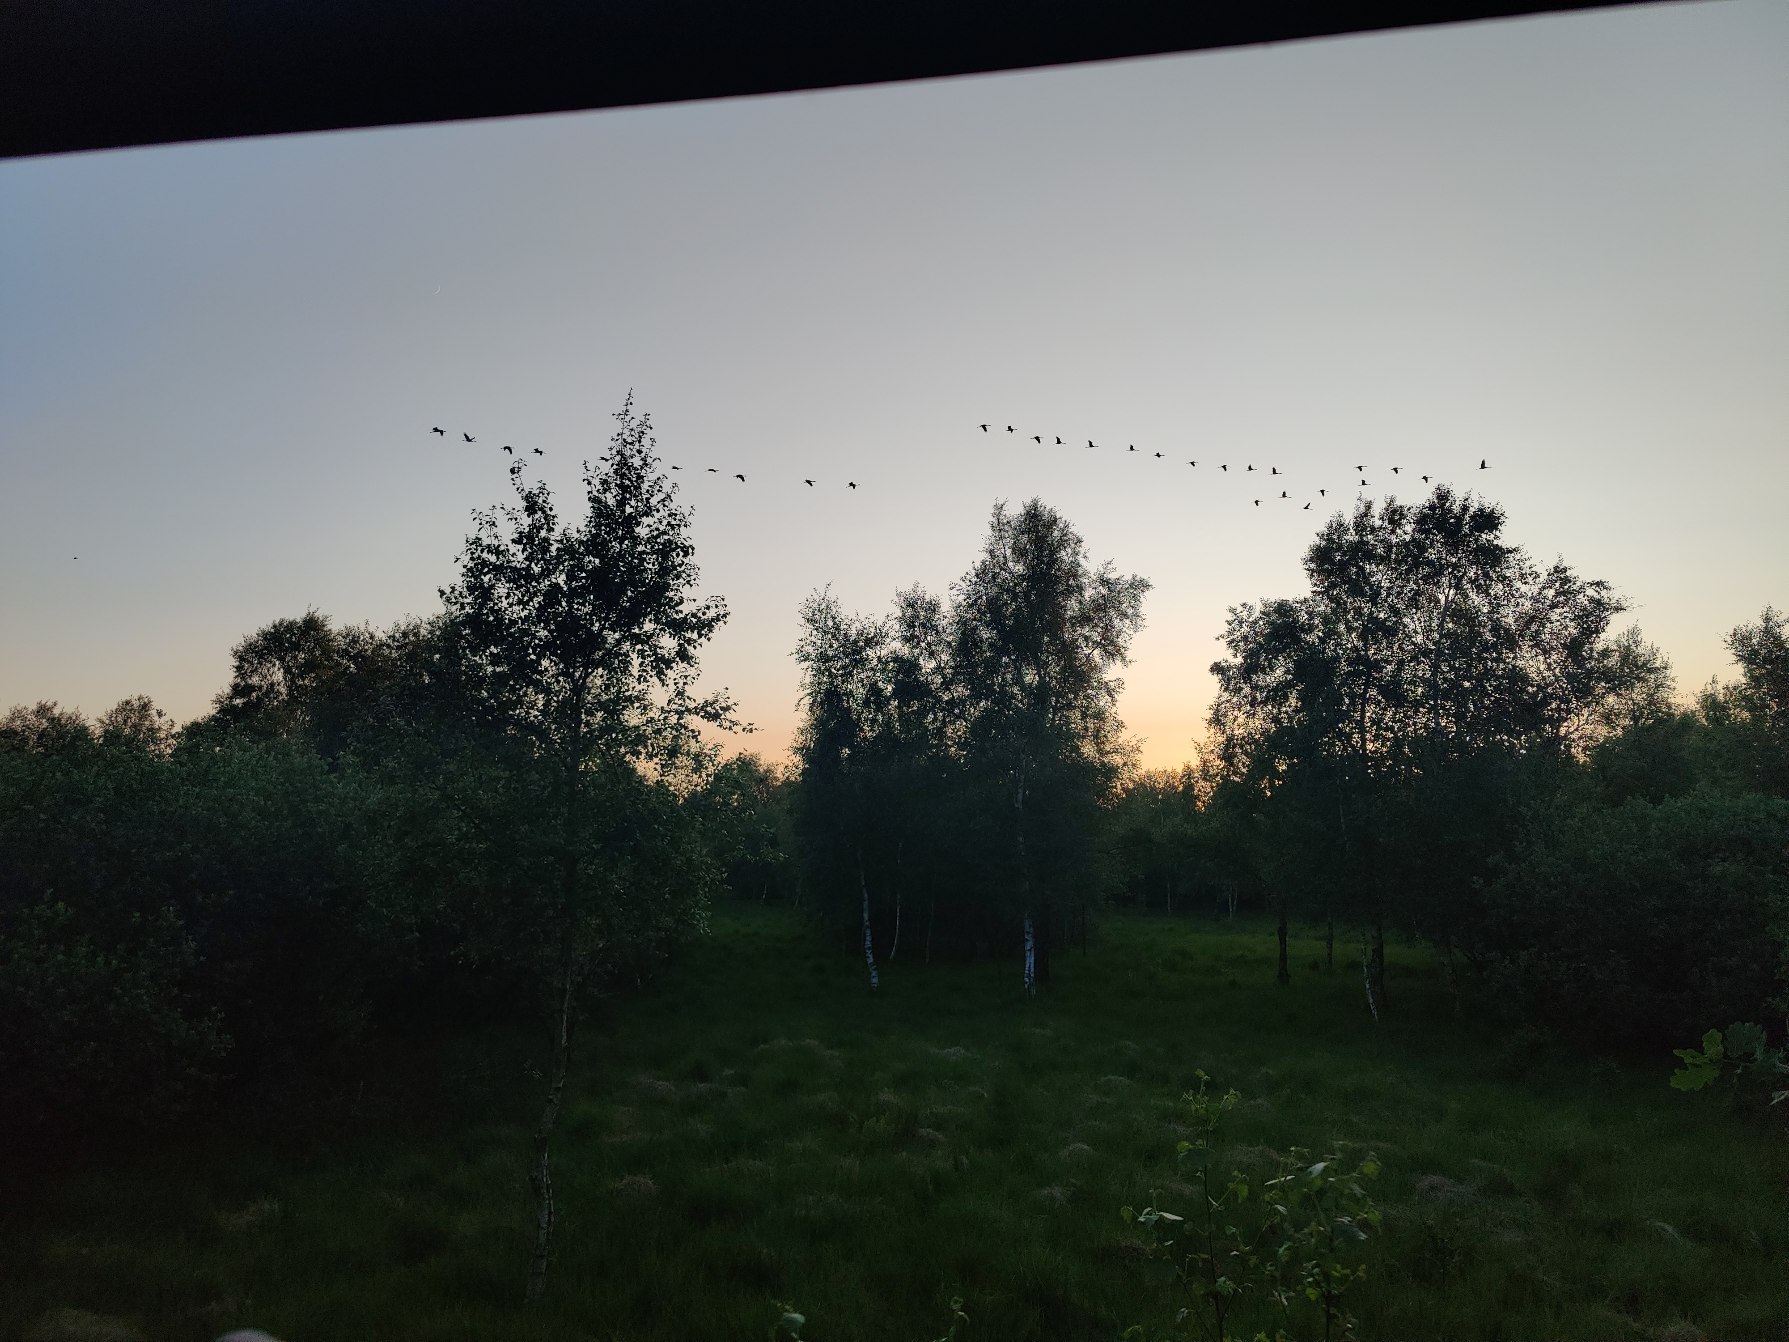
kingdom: Animalia
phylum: Chordata
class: Aves
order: Gruiformes
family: Gruidae
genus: Grus
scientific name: Grus grus
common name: Trane
